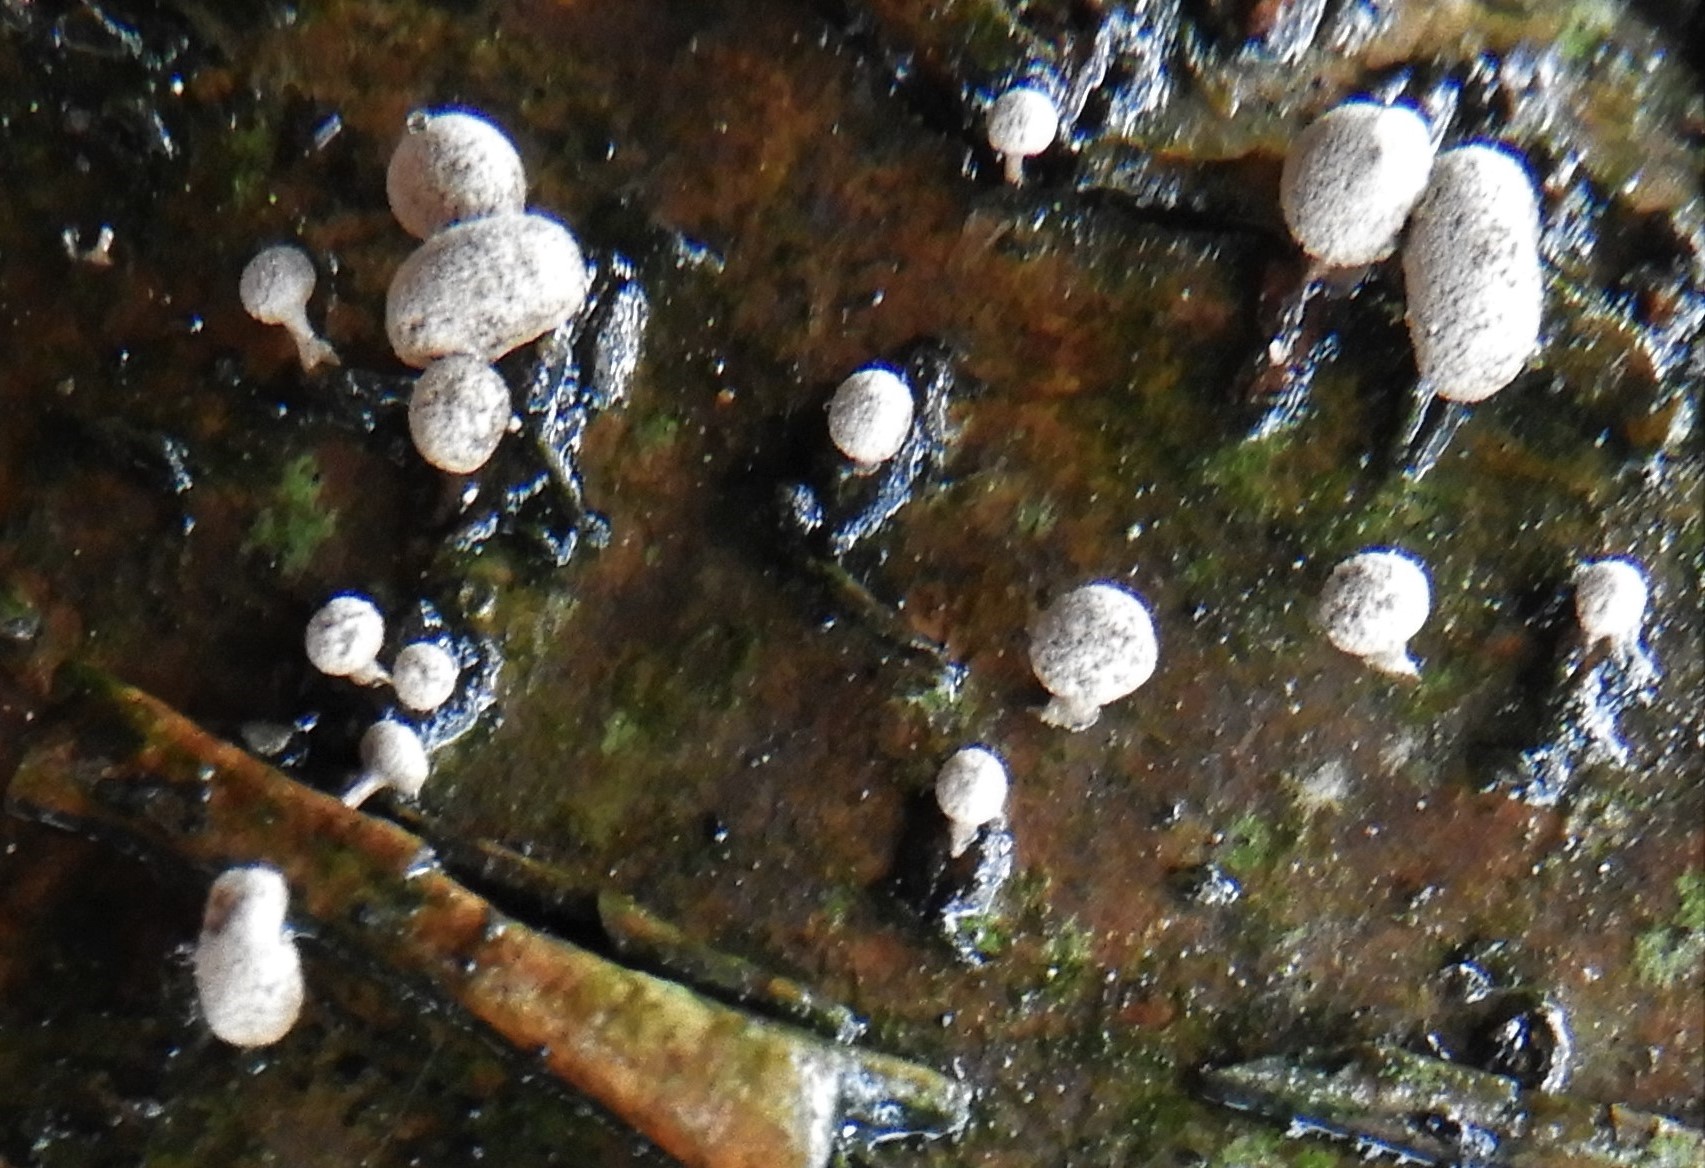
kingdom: Fungi
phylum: Basidiomycota
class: Atractiellomycetes
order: Atractiellales
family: Phleogenaceae
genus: Phleogena
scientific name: Phleogena faginea
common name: pudderkølle
